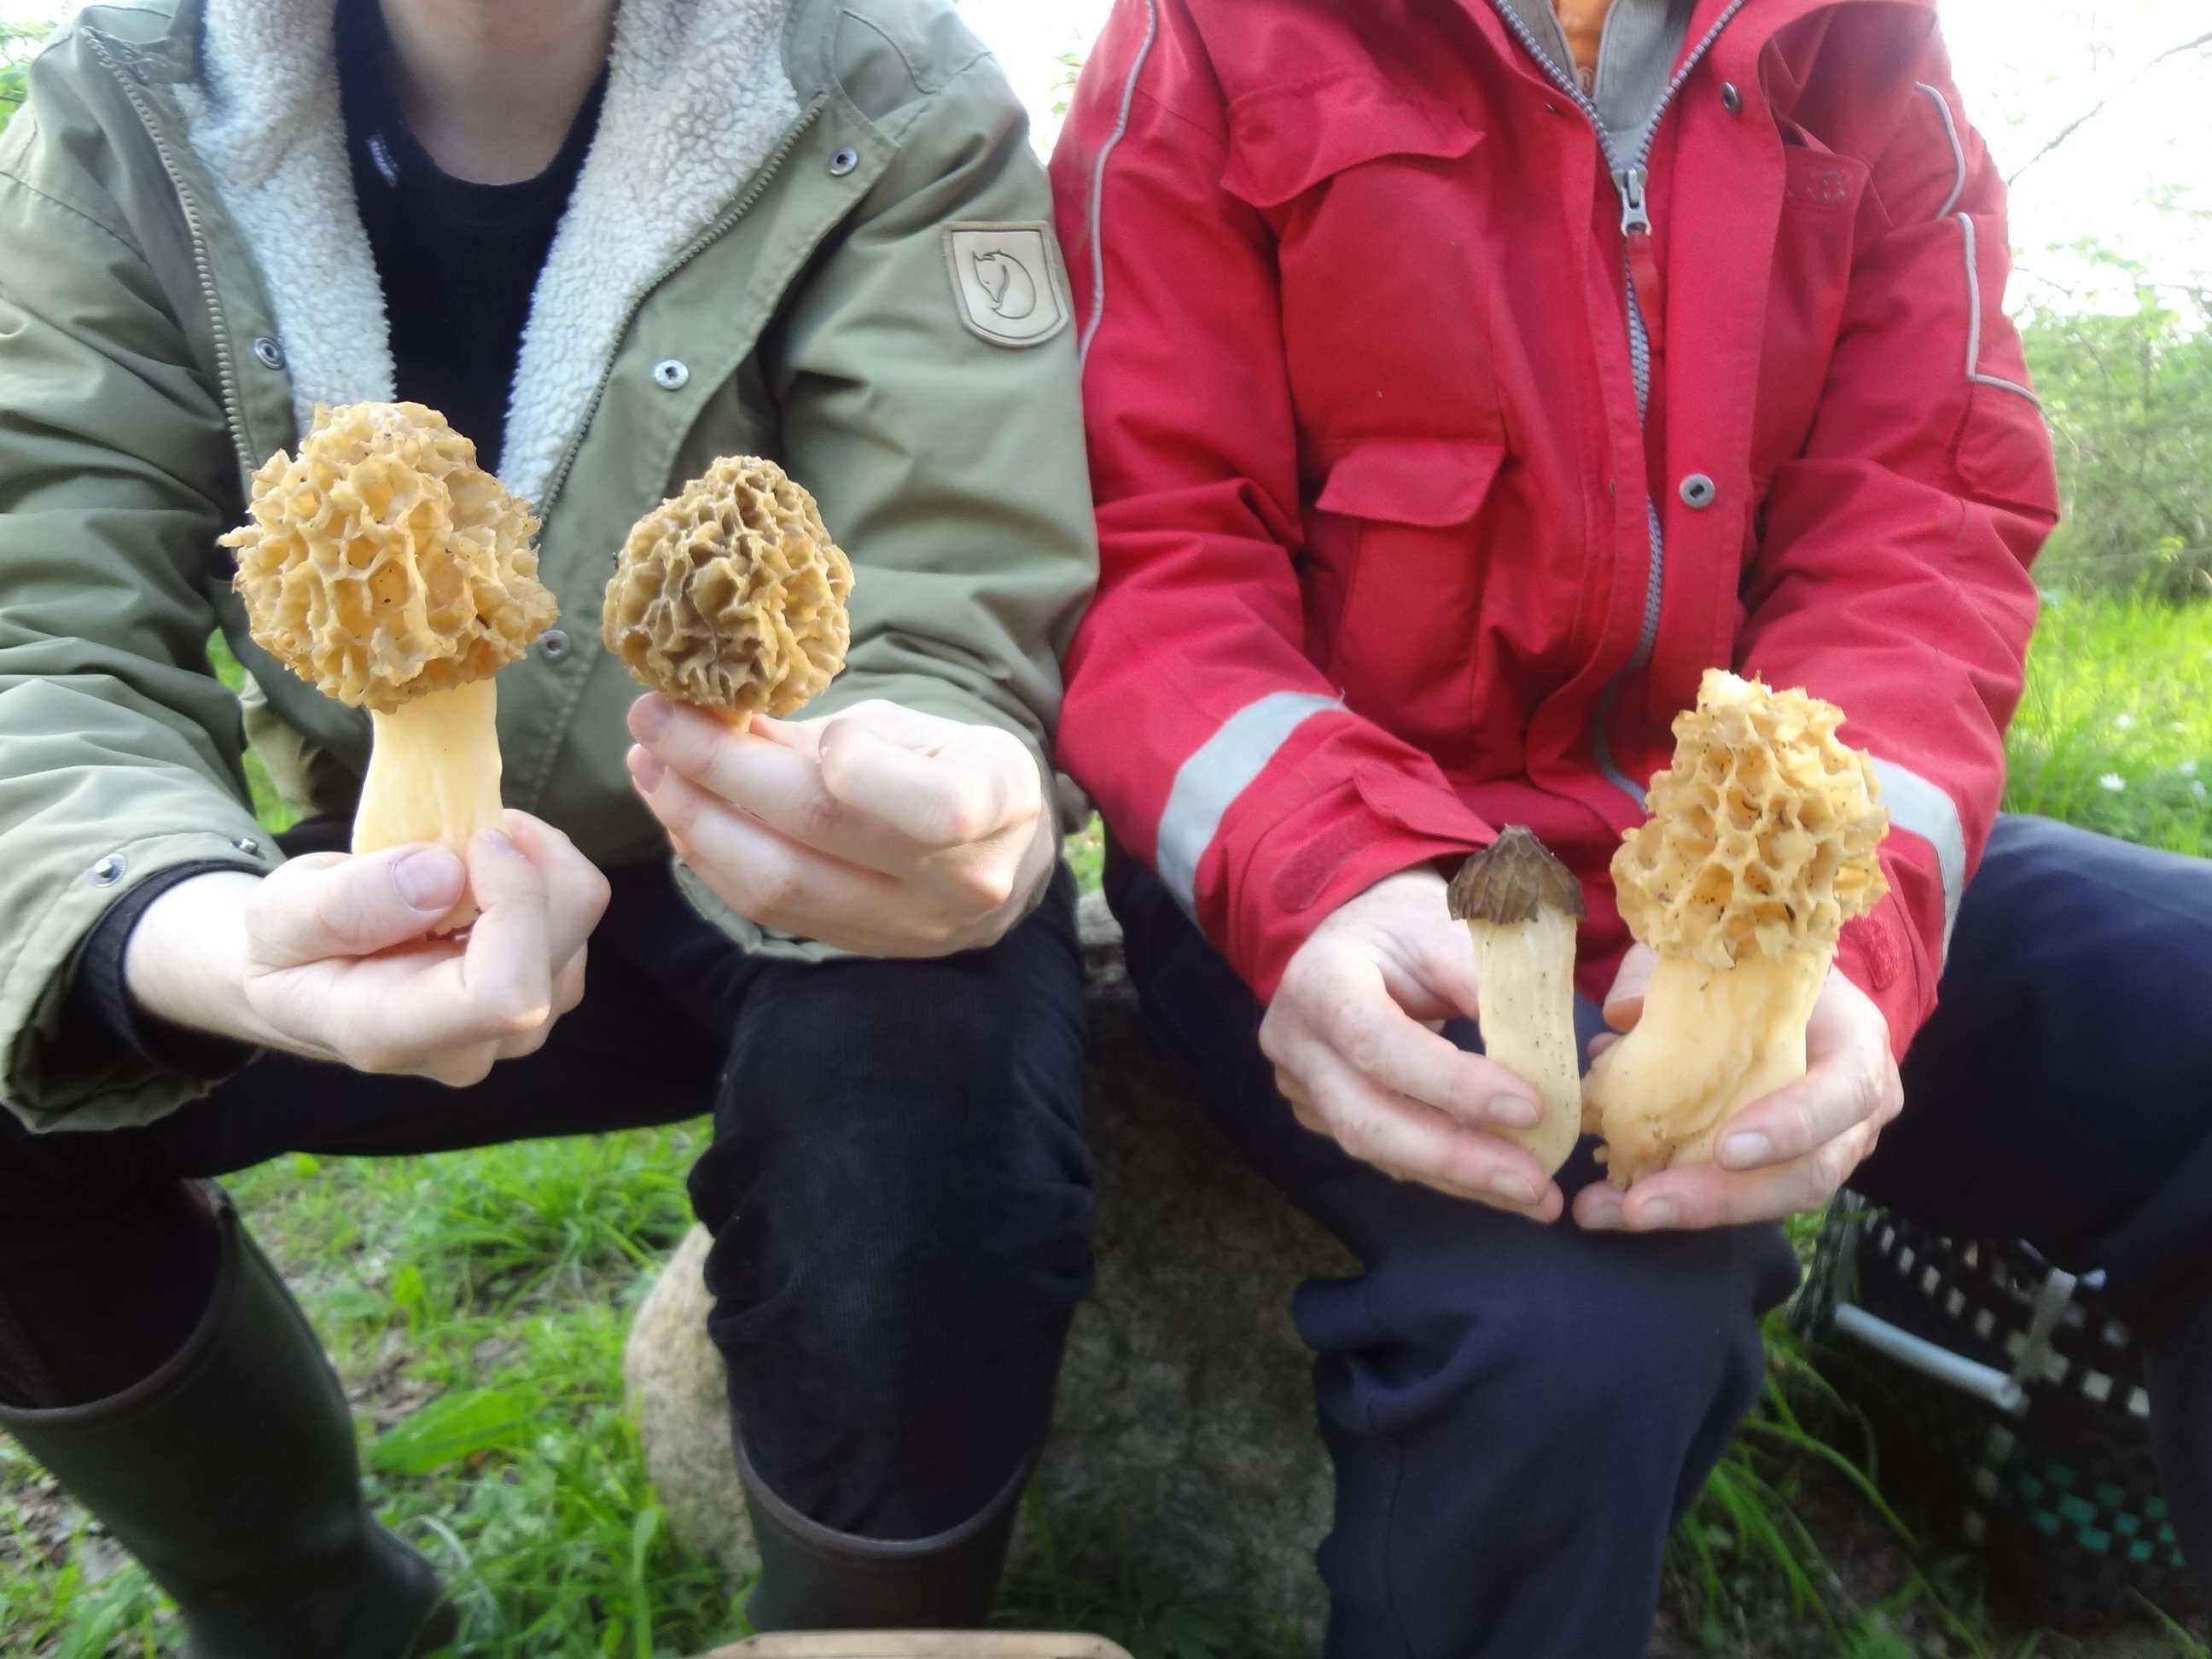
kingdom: Fungi
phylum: Ascomycota
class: Pezizomycetes
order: Pezizales
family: Morchellaceae
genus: Morchella
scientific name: Morchella esculenta
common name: spiselig morkel
